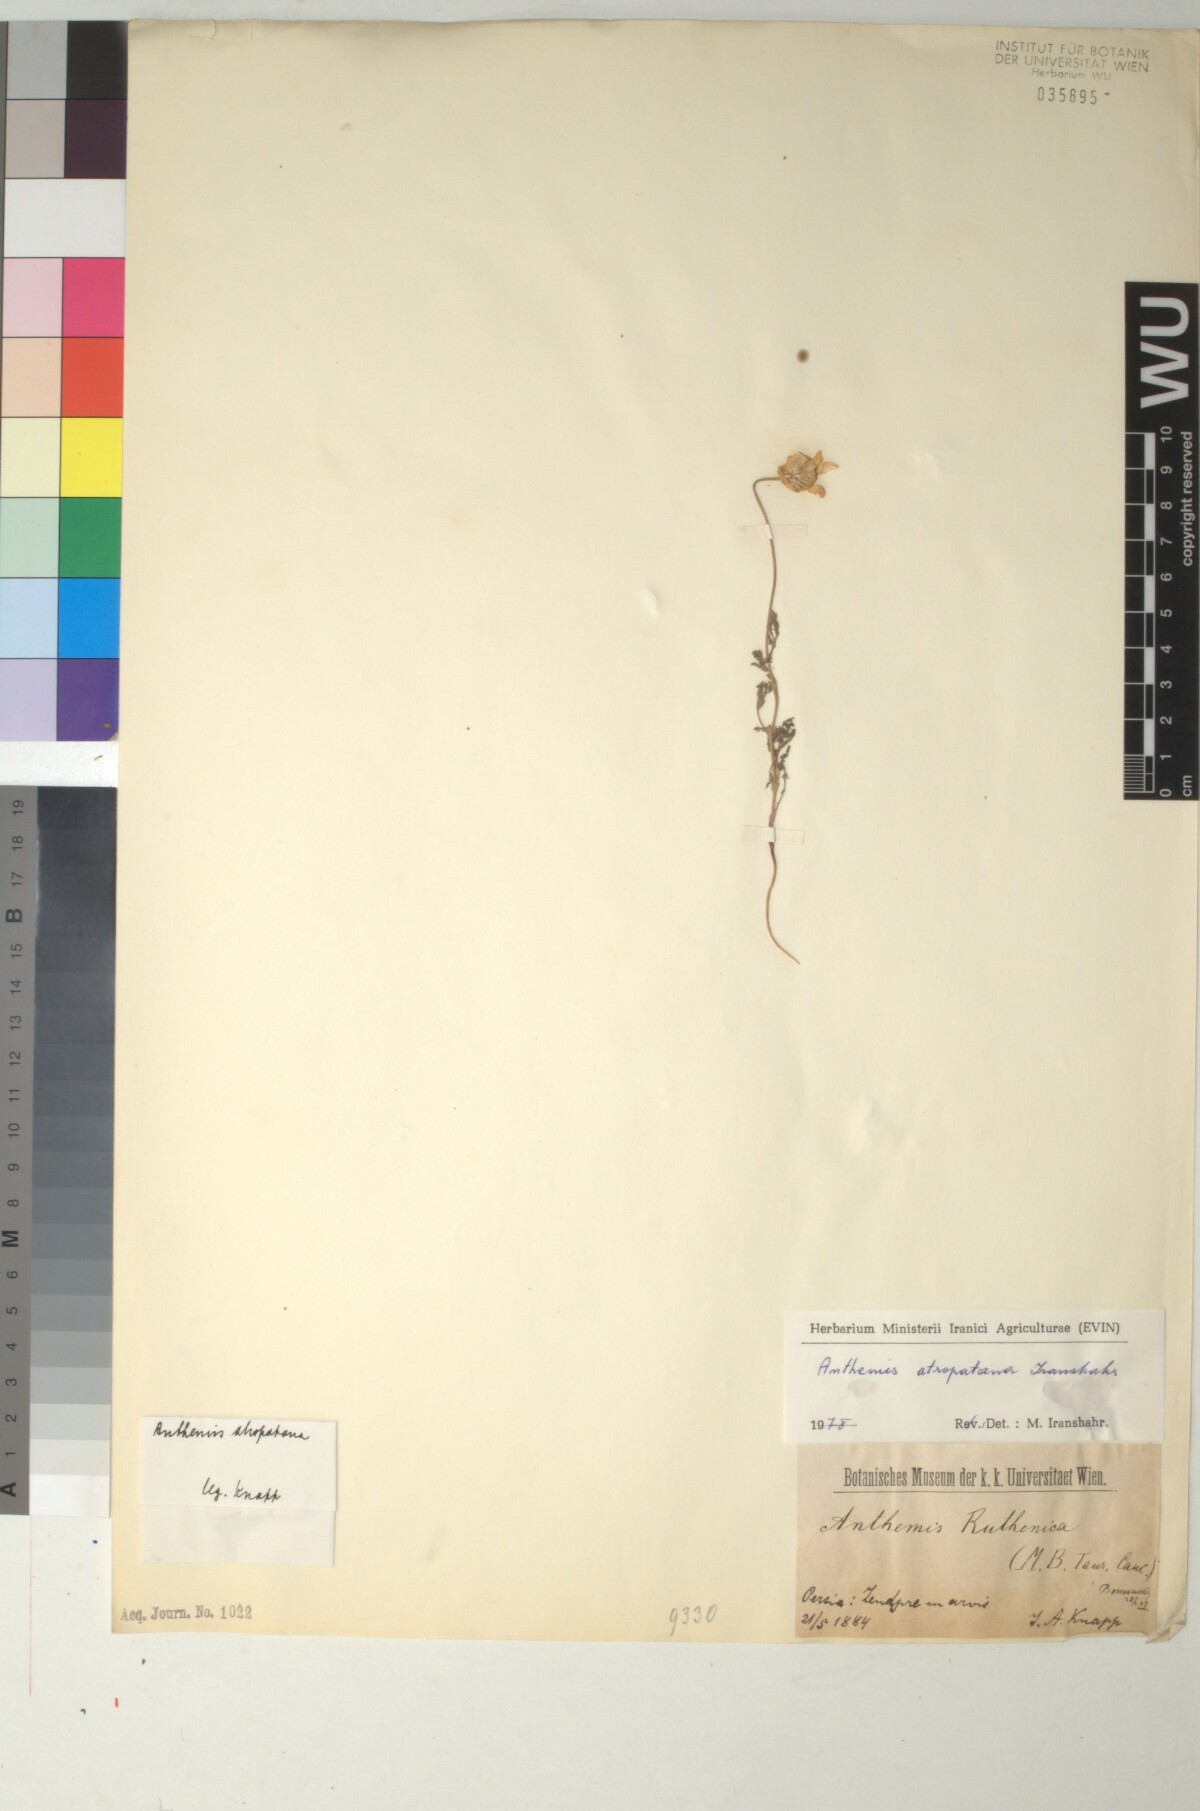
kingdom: Plantae
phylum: Tracheophyta
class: Magnoliopsida
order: Asterales
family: Asteraceae
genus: Anthemis
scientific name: Anthemis atropatana
